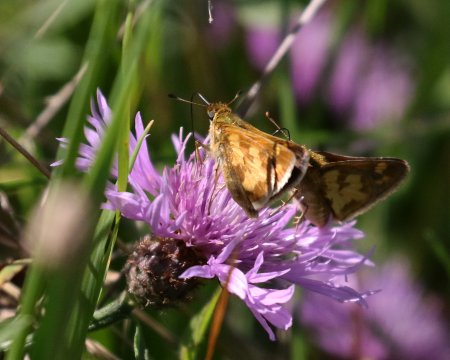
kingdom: Animalia
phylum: Arthropoda
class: Insecta
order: Lepidoptera
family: Hesperiidae
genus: Polites
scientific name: Polites coras
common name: Peck's Skipper
